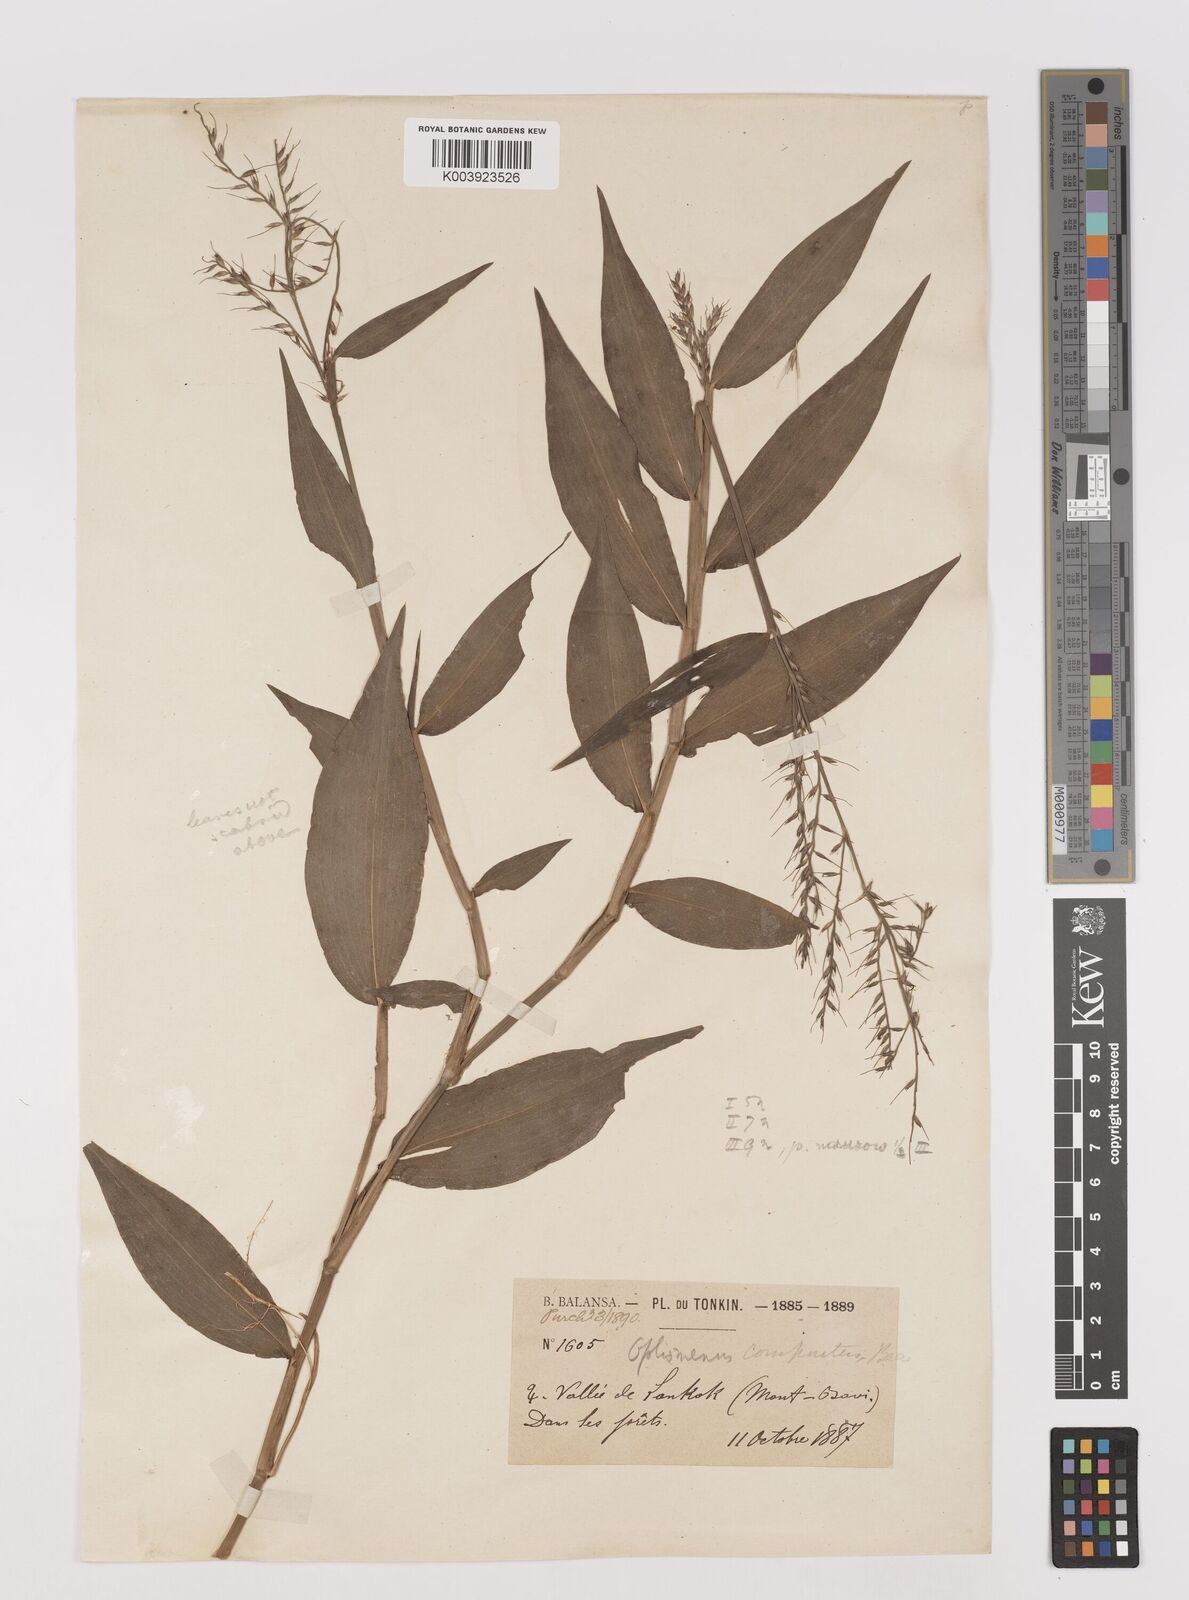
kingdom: Plantae
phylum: Tracheophyta
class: Liliopsida
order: Poales
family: Poaceae
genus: Oplismenus
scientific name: Oplismenus compositus
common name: Running mountain grass
